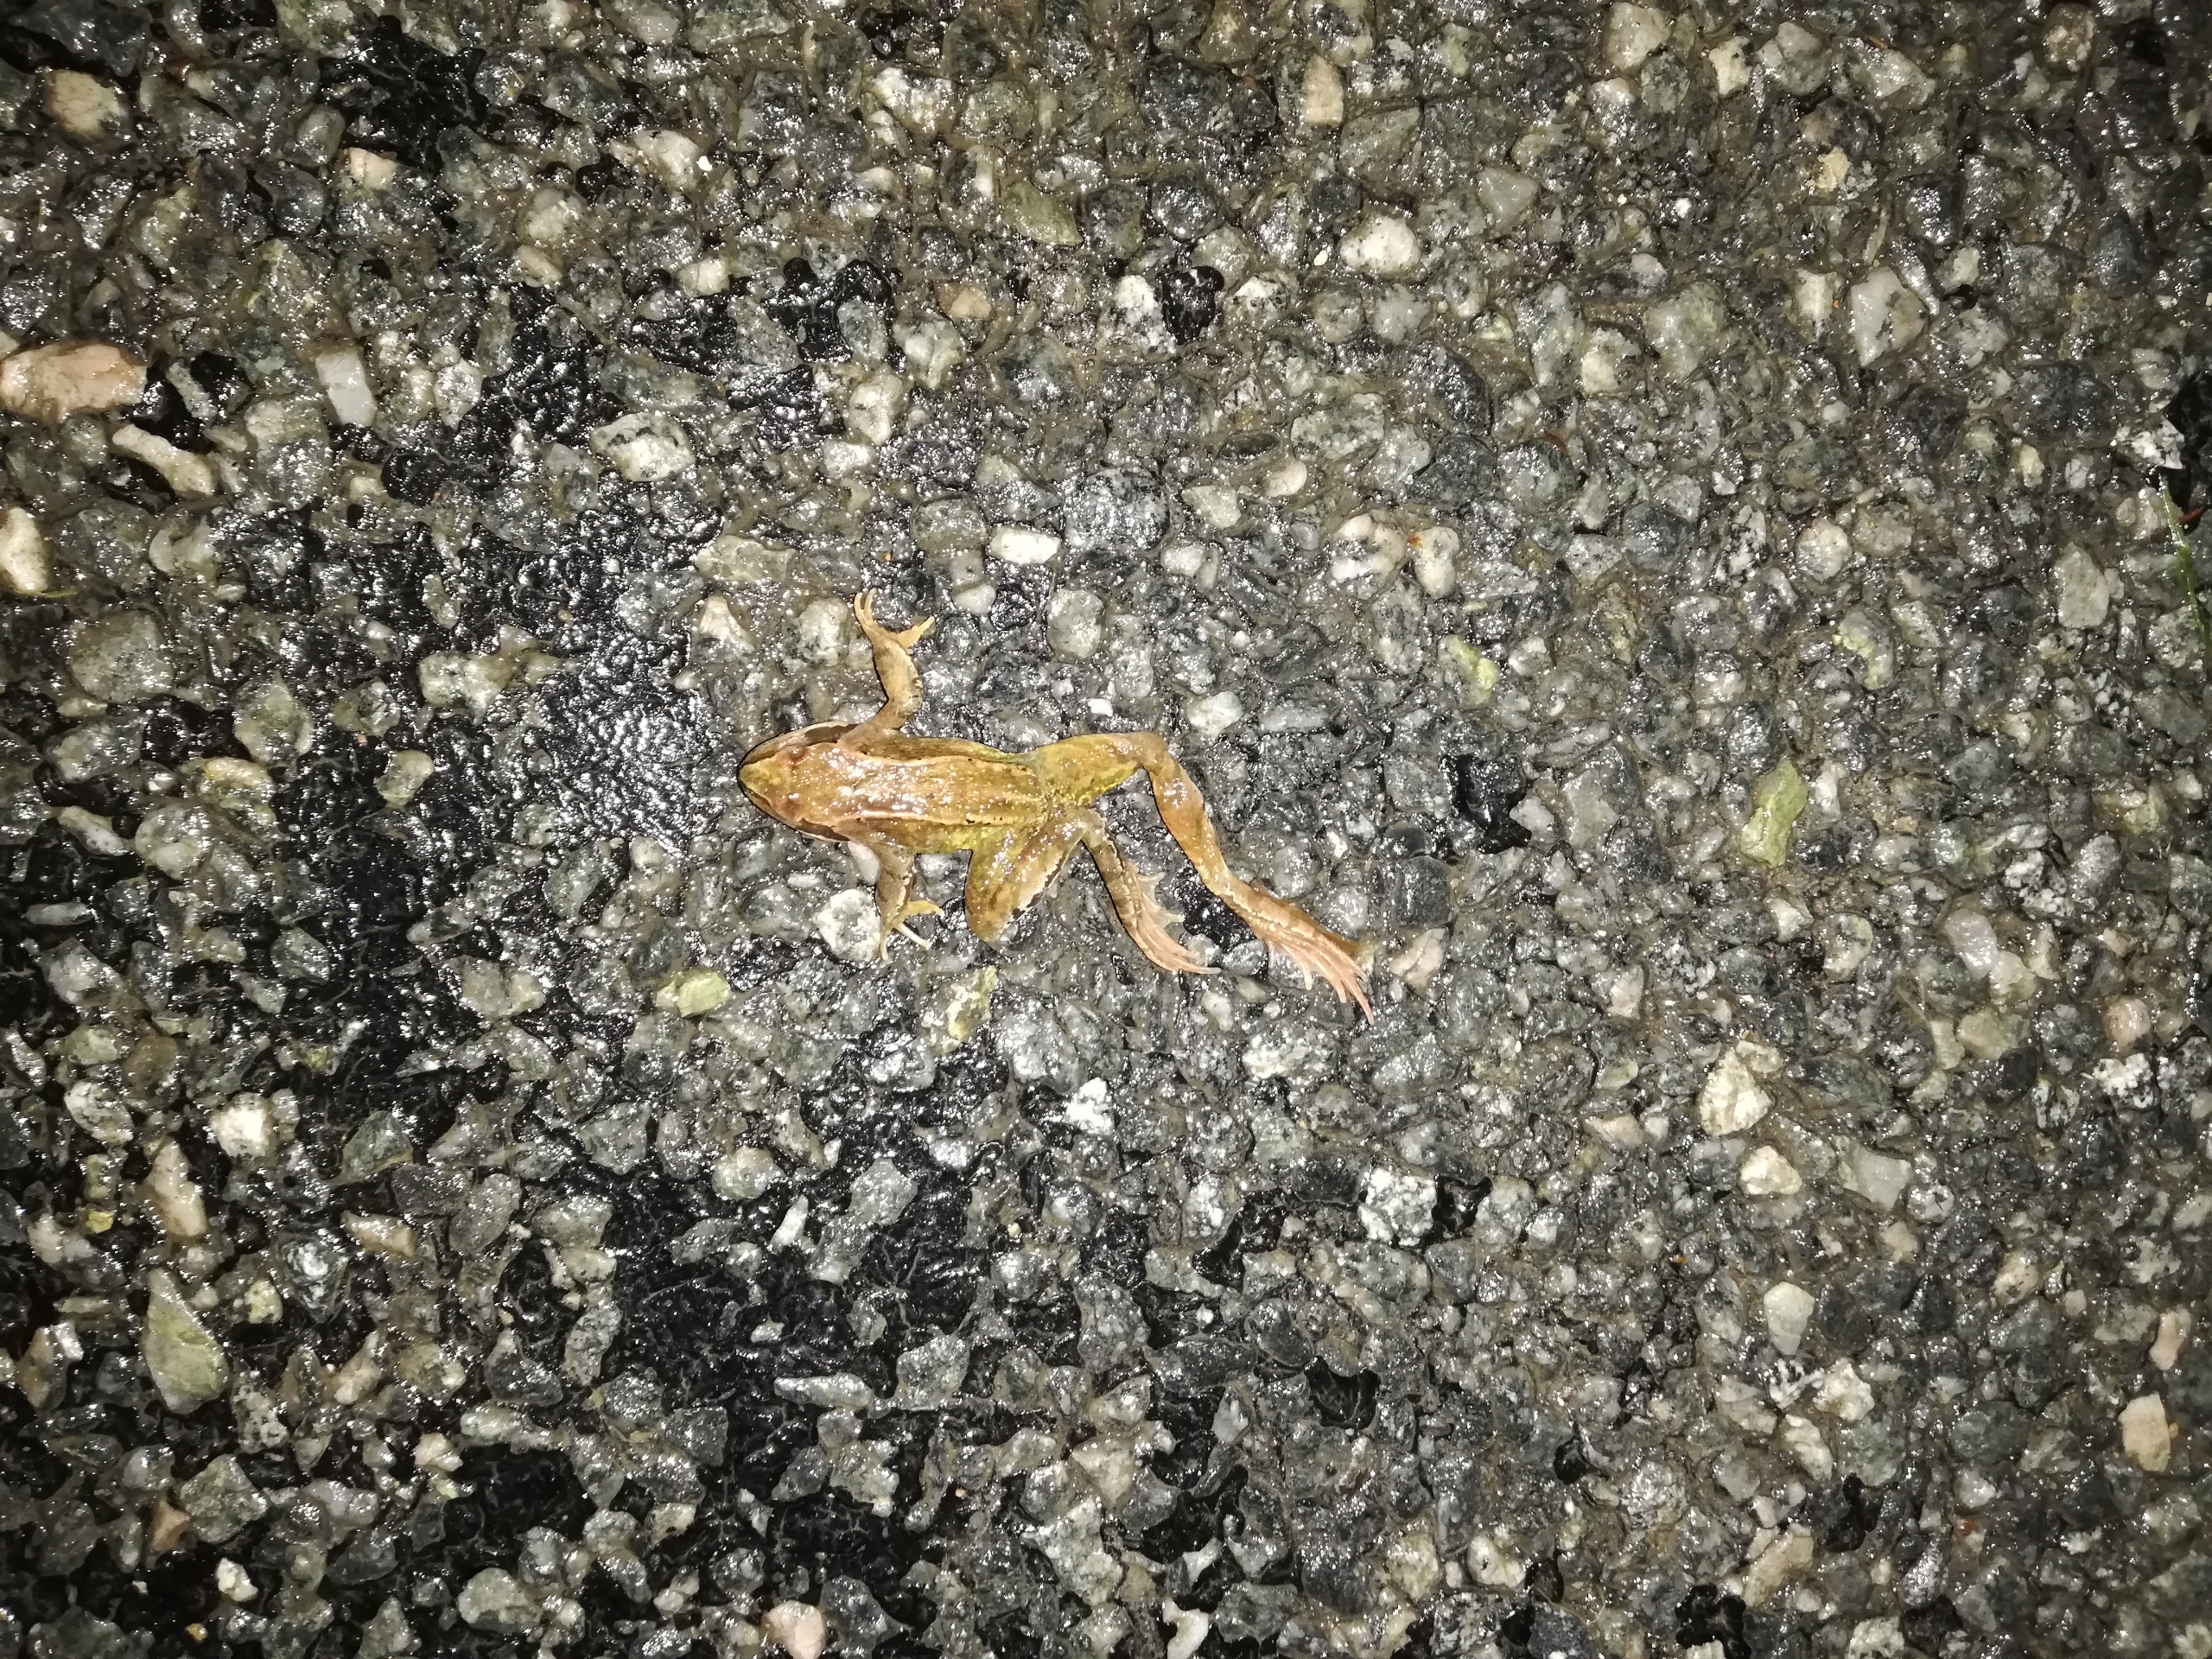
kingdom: Animalia
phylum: Chordata
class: Amphibia
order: Anura
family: Ranidae
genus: Rana
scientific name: Rana temporaria
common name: Butsnudet frø
